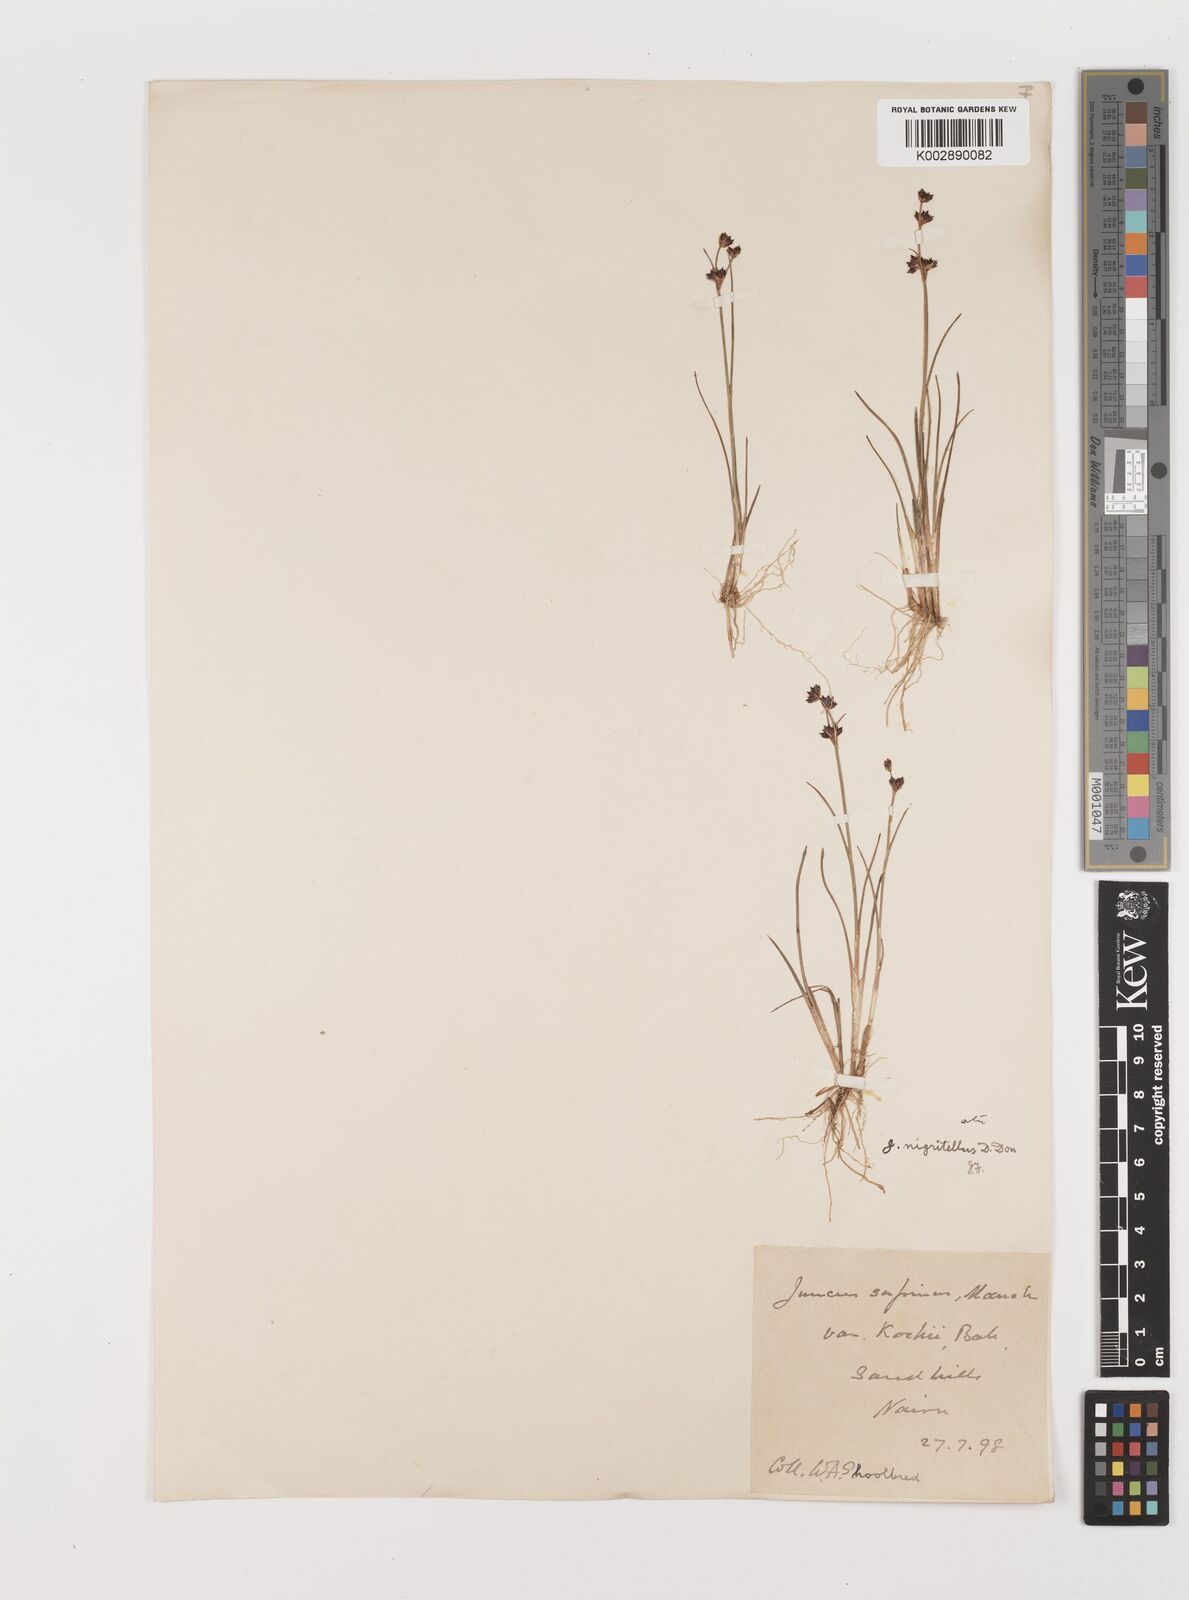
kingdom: Plantae
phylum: Tracheophyta
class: Liliopsida
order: Poales
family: Juncaceae
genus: Juncus
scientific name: Juncus articulatus
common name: Jointed rush
